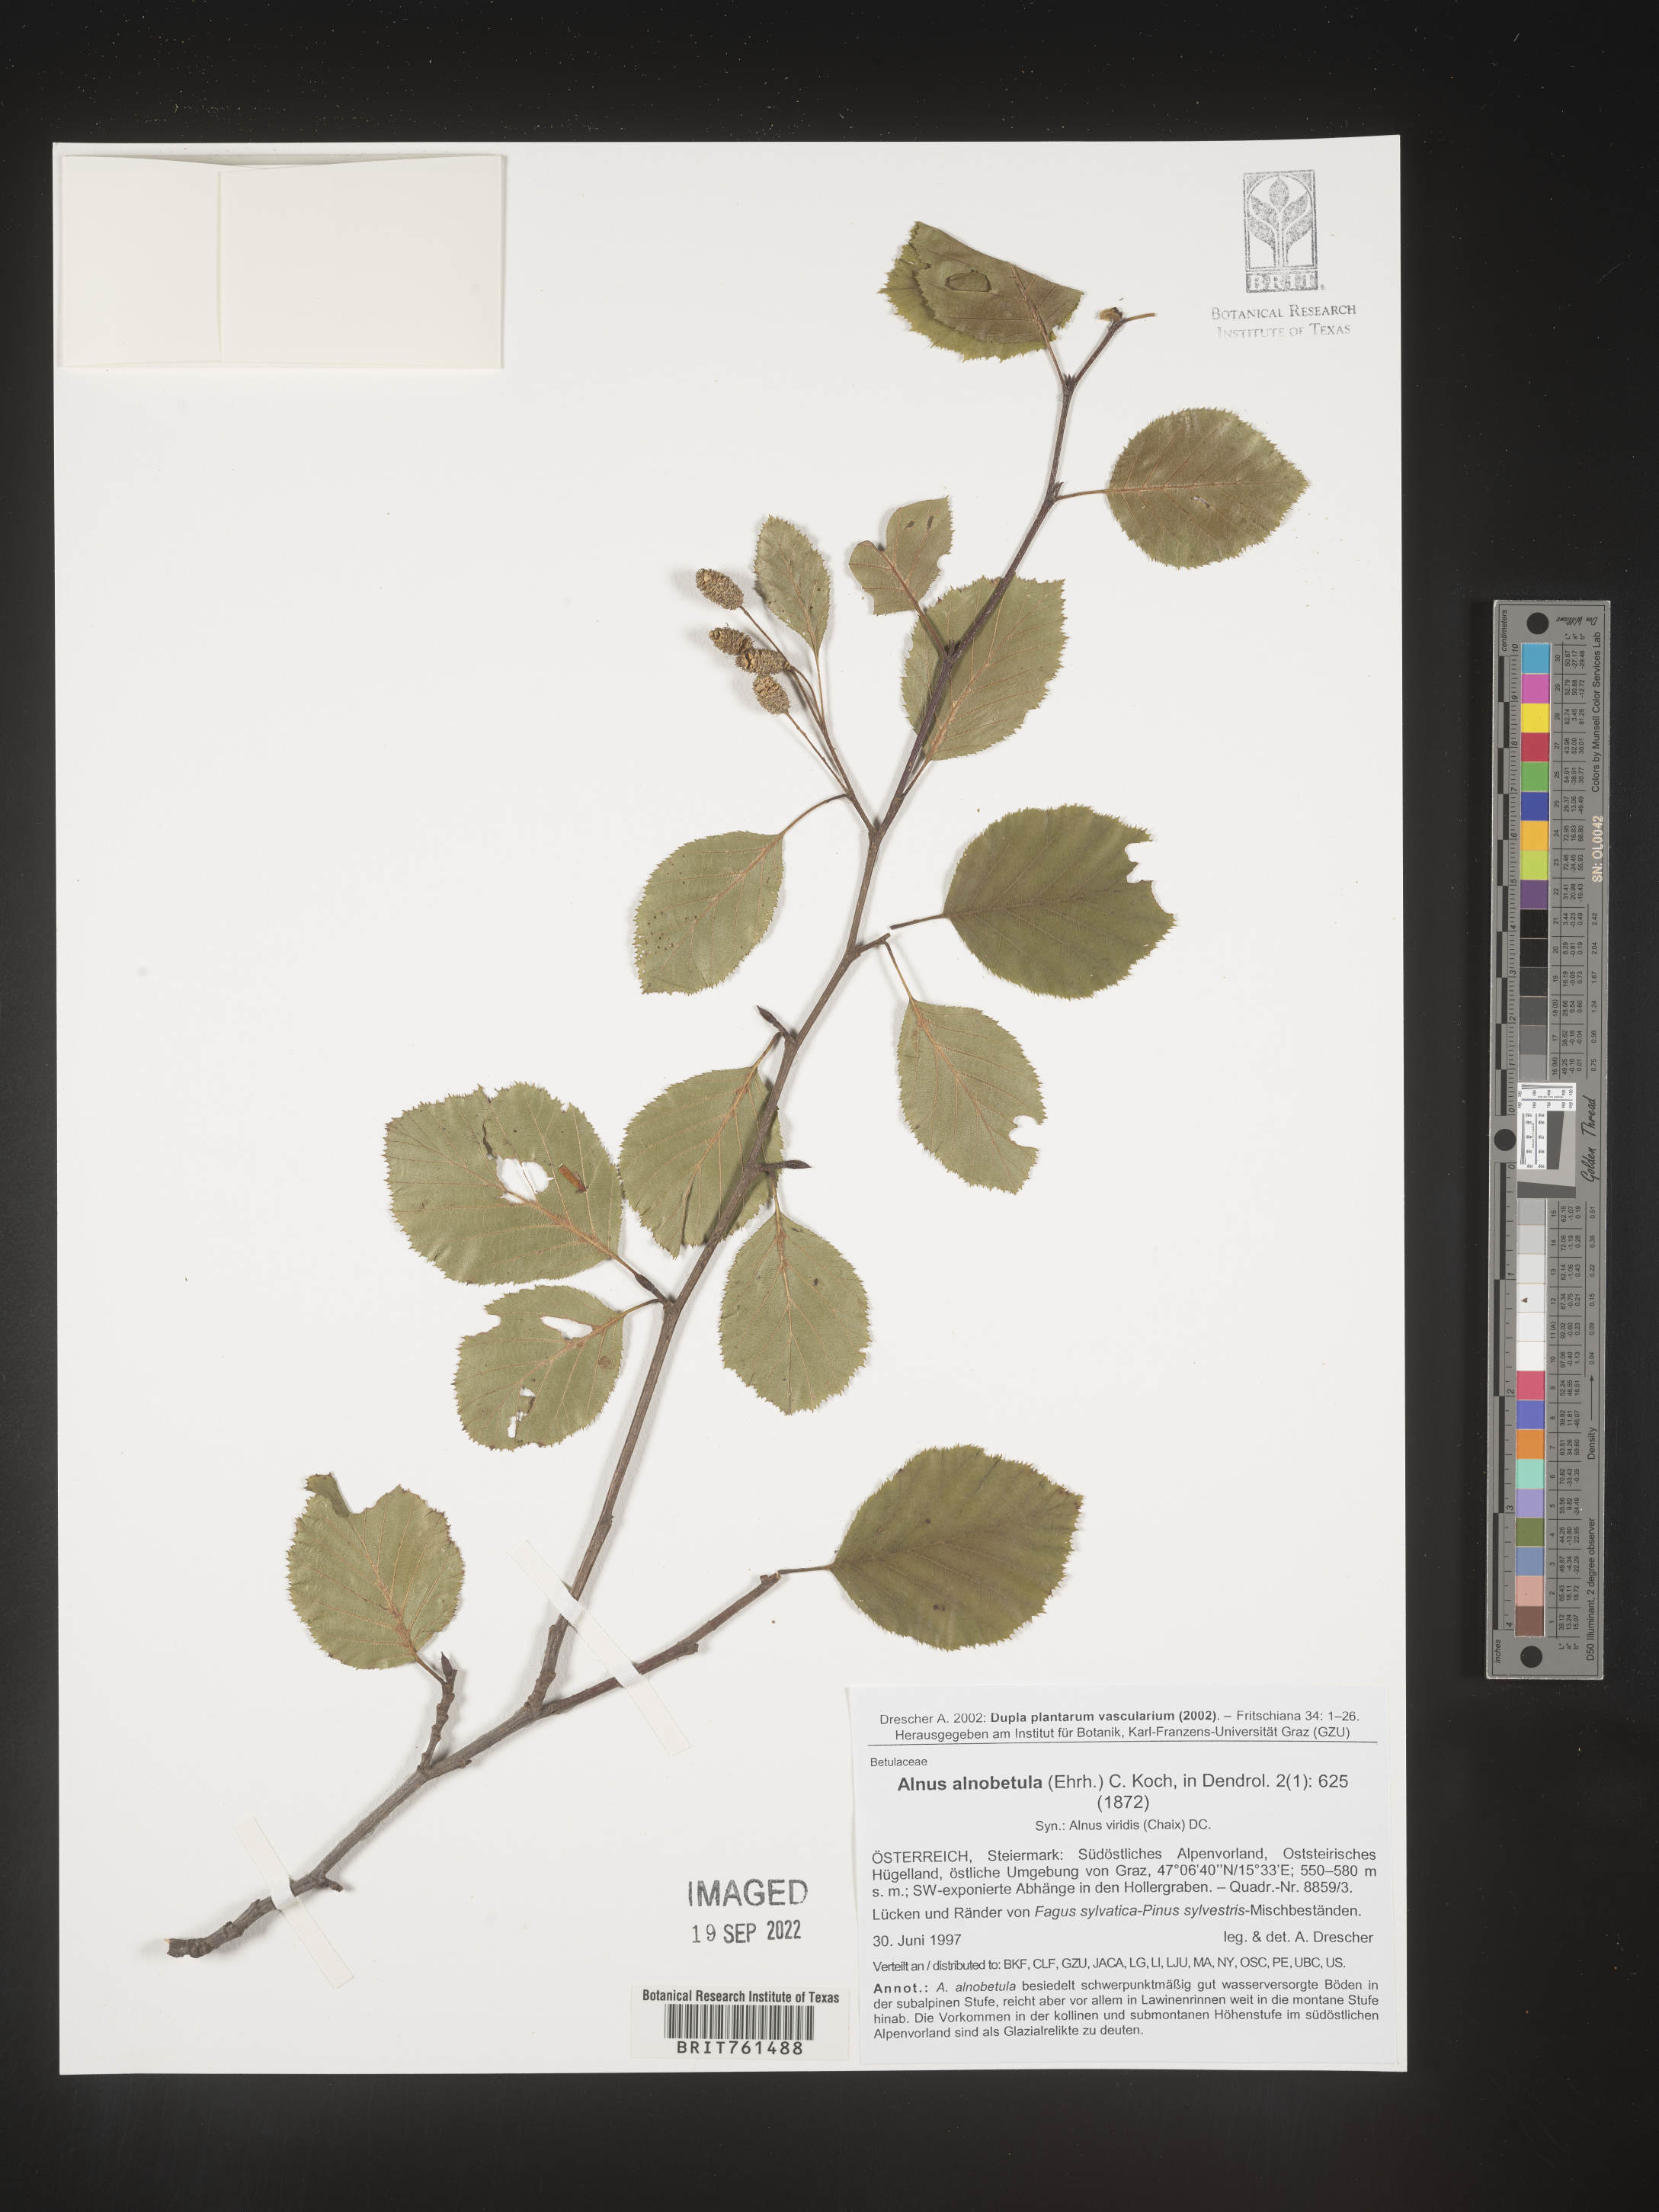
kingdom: Plantae
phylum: Tracheophyta
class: Magnoliopsida
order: Fagales
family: Betulaceae
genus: Alnus
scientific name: Alnus
